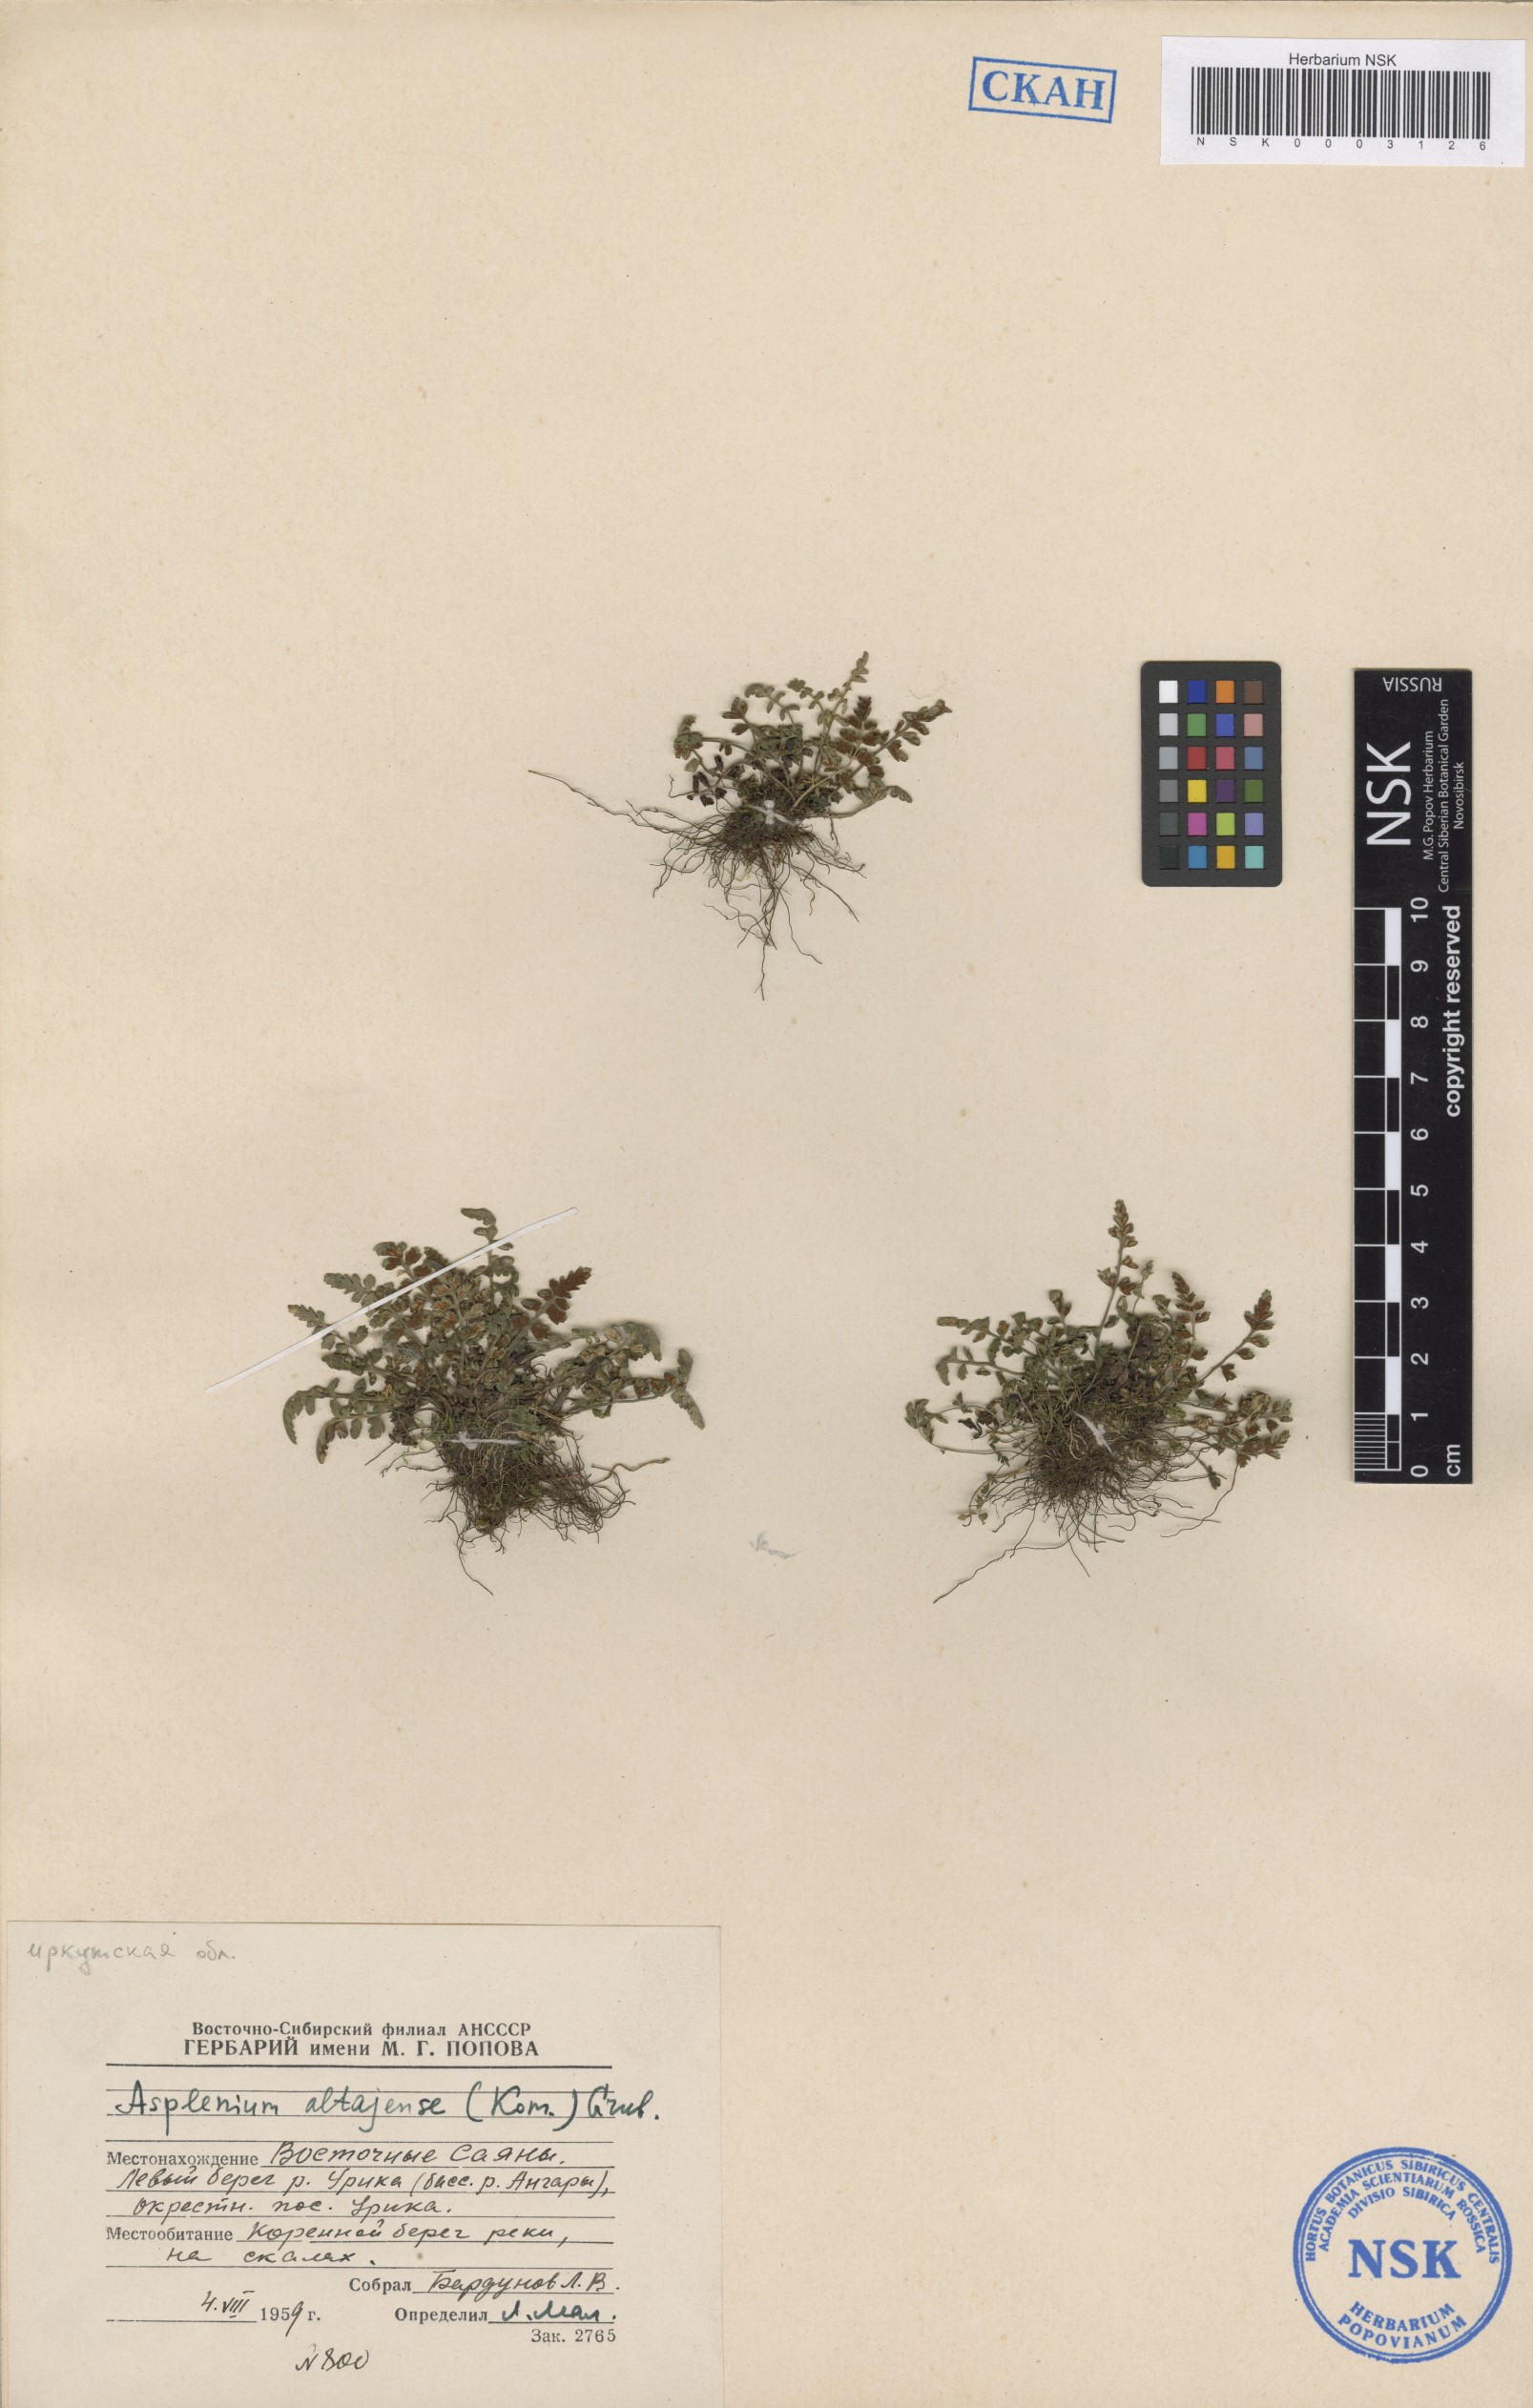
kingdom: Plantae
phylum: Tracheophyta
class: Polypodiopsida
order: Polypodiales
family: Aspleniaceae
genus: Asplenium
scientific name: Asplenium altajense
